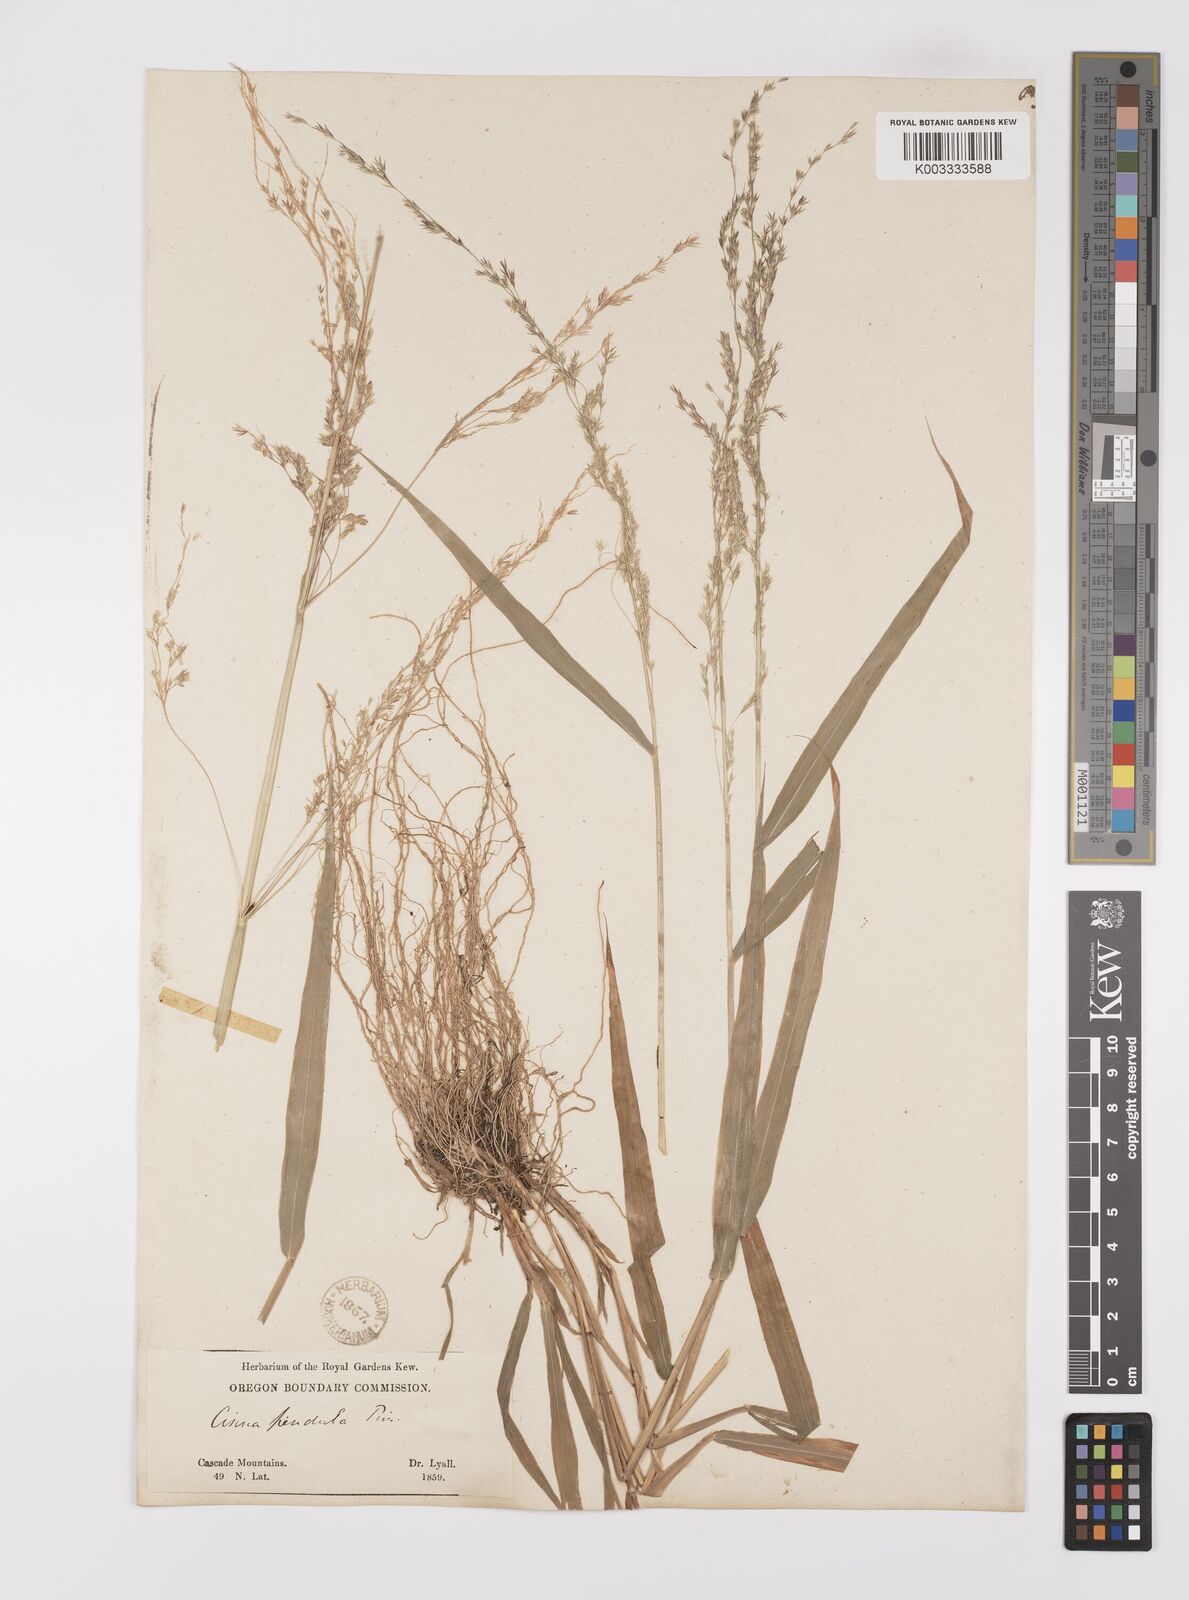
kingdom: Plantae
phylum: Tracheophyta
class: Liliopsida
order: Poales
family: Poaceae
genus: Cinna
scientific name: Cinna latifolia
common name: Drooping woodreed
